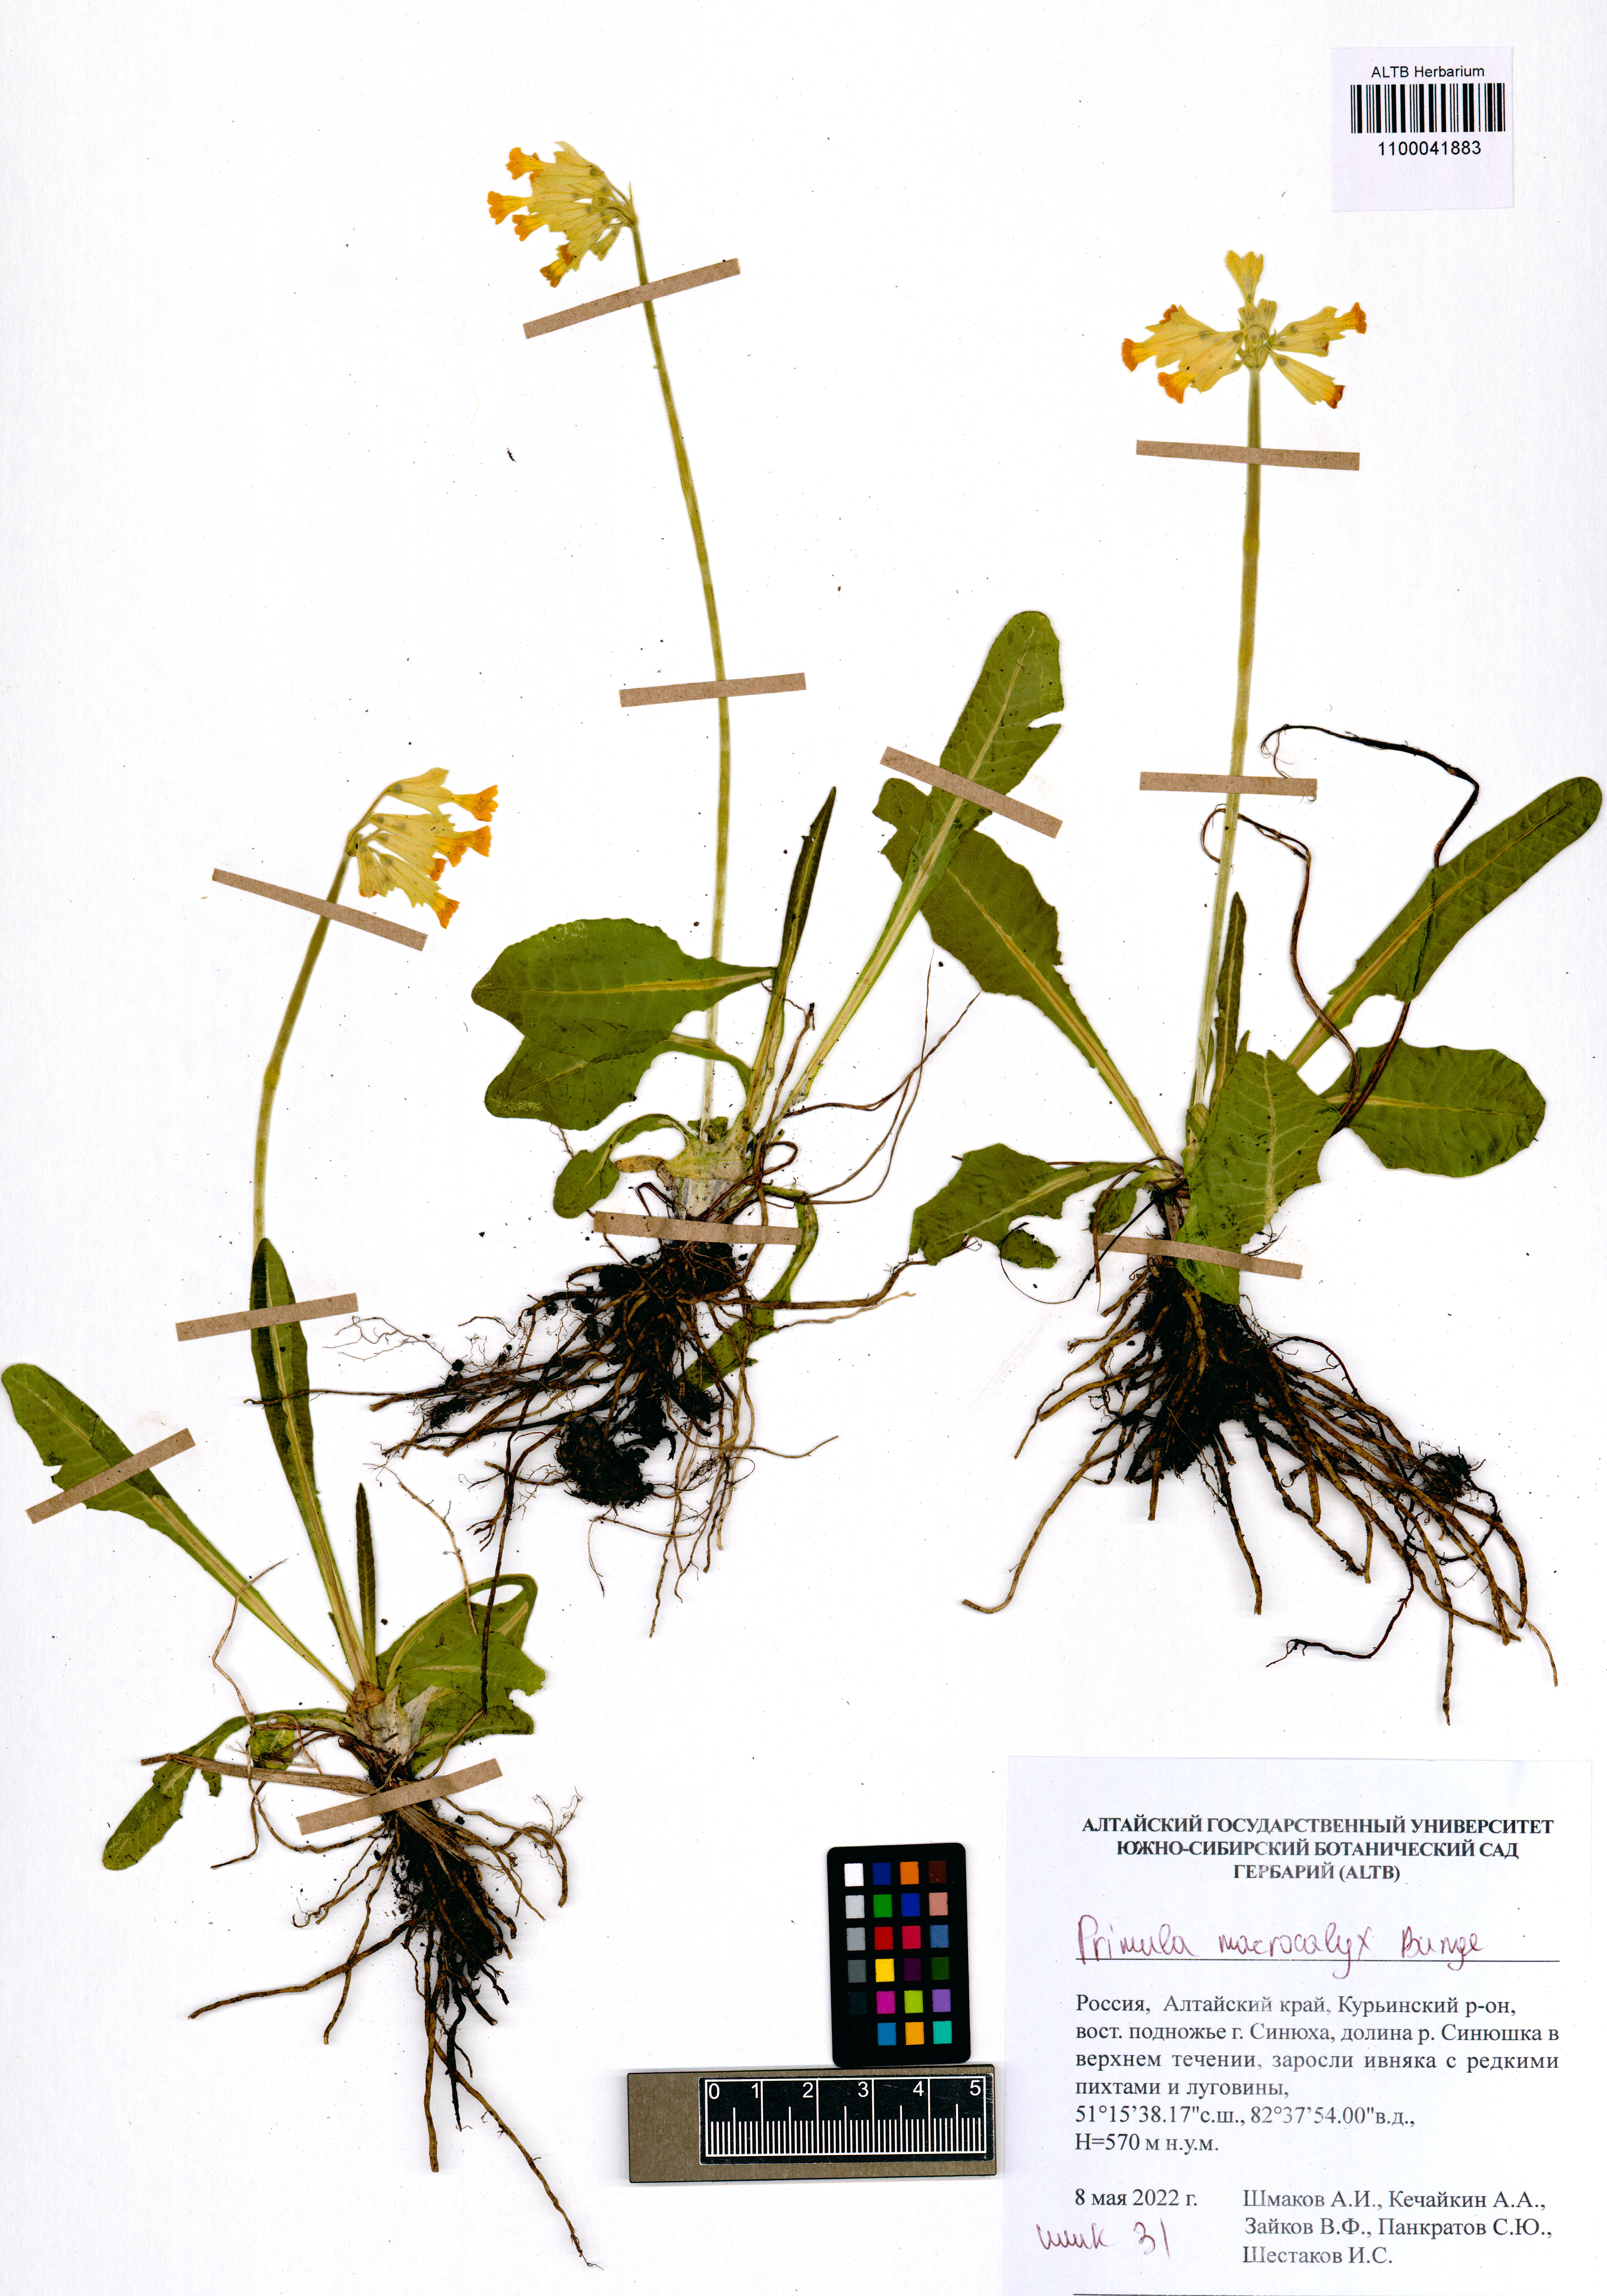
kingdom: Plantae
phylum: Tracheophyta
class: Magnoliopsida
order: Ericales
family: Primulaceae
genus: Primula
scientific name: Primula veris
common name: Cowslip
